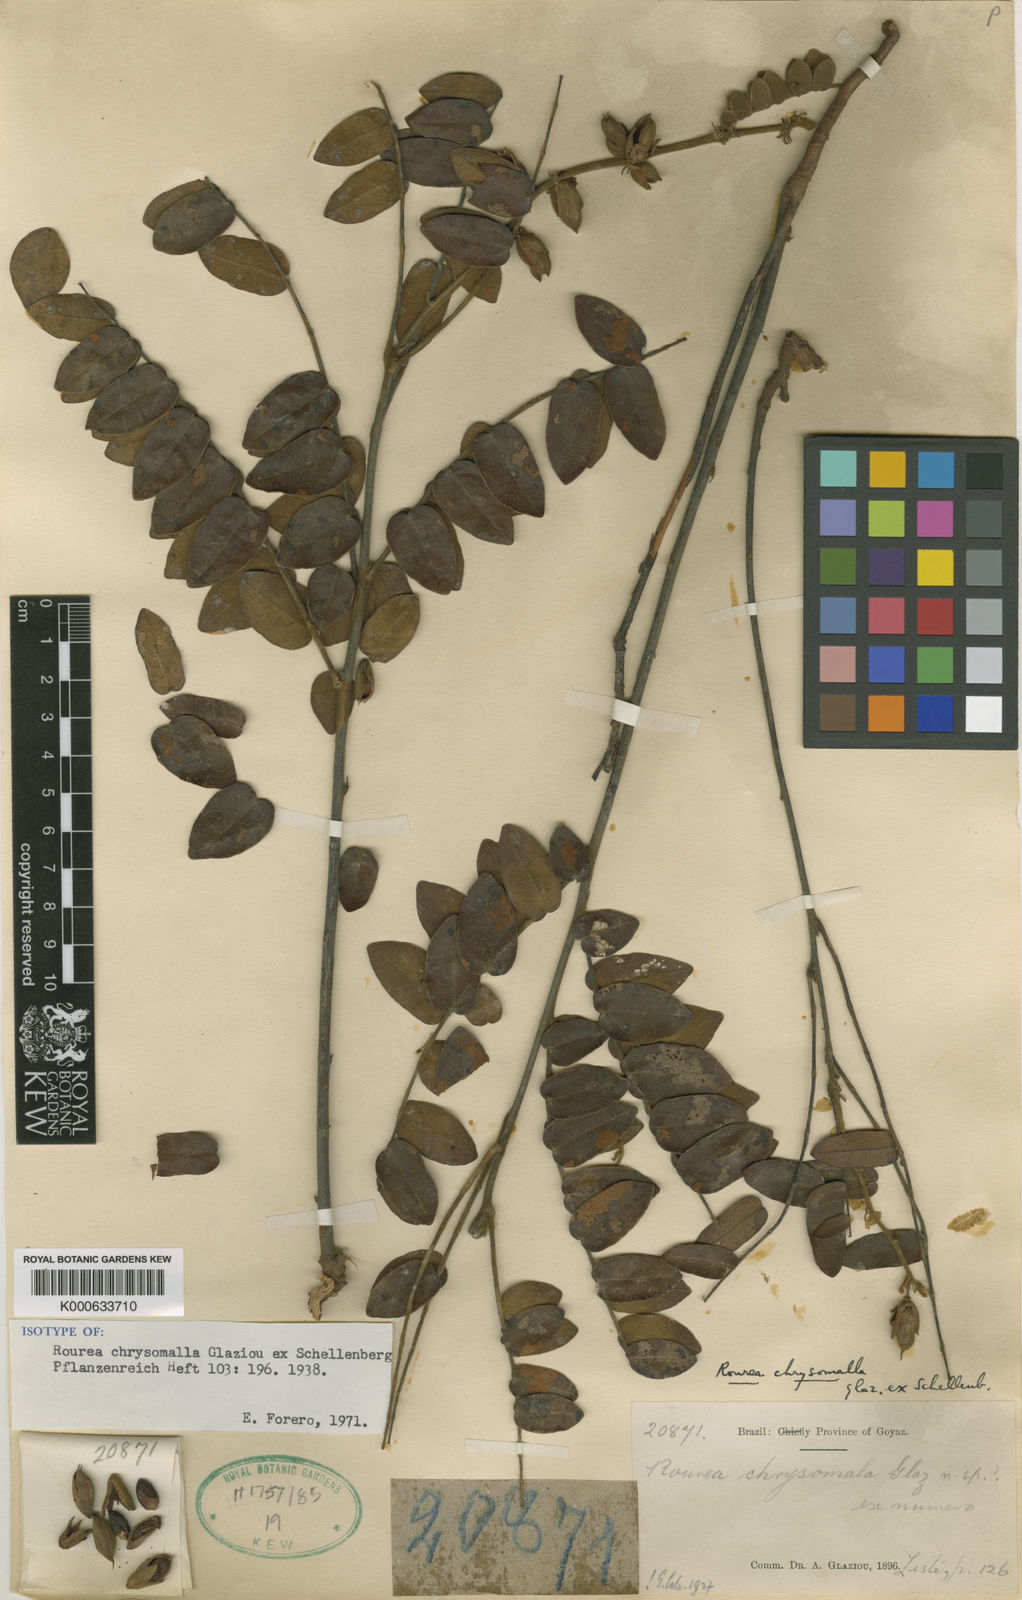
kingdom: Plantae
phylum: Tracheophyta
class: Magnoliopsida
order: Oxalidales
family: Connaraceae
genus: Rourea
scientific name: Rourea chrysomalla
